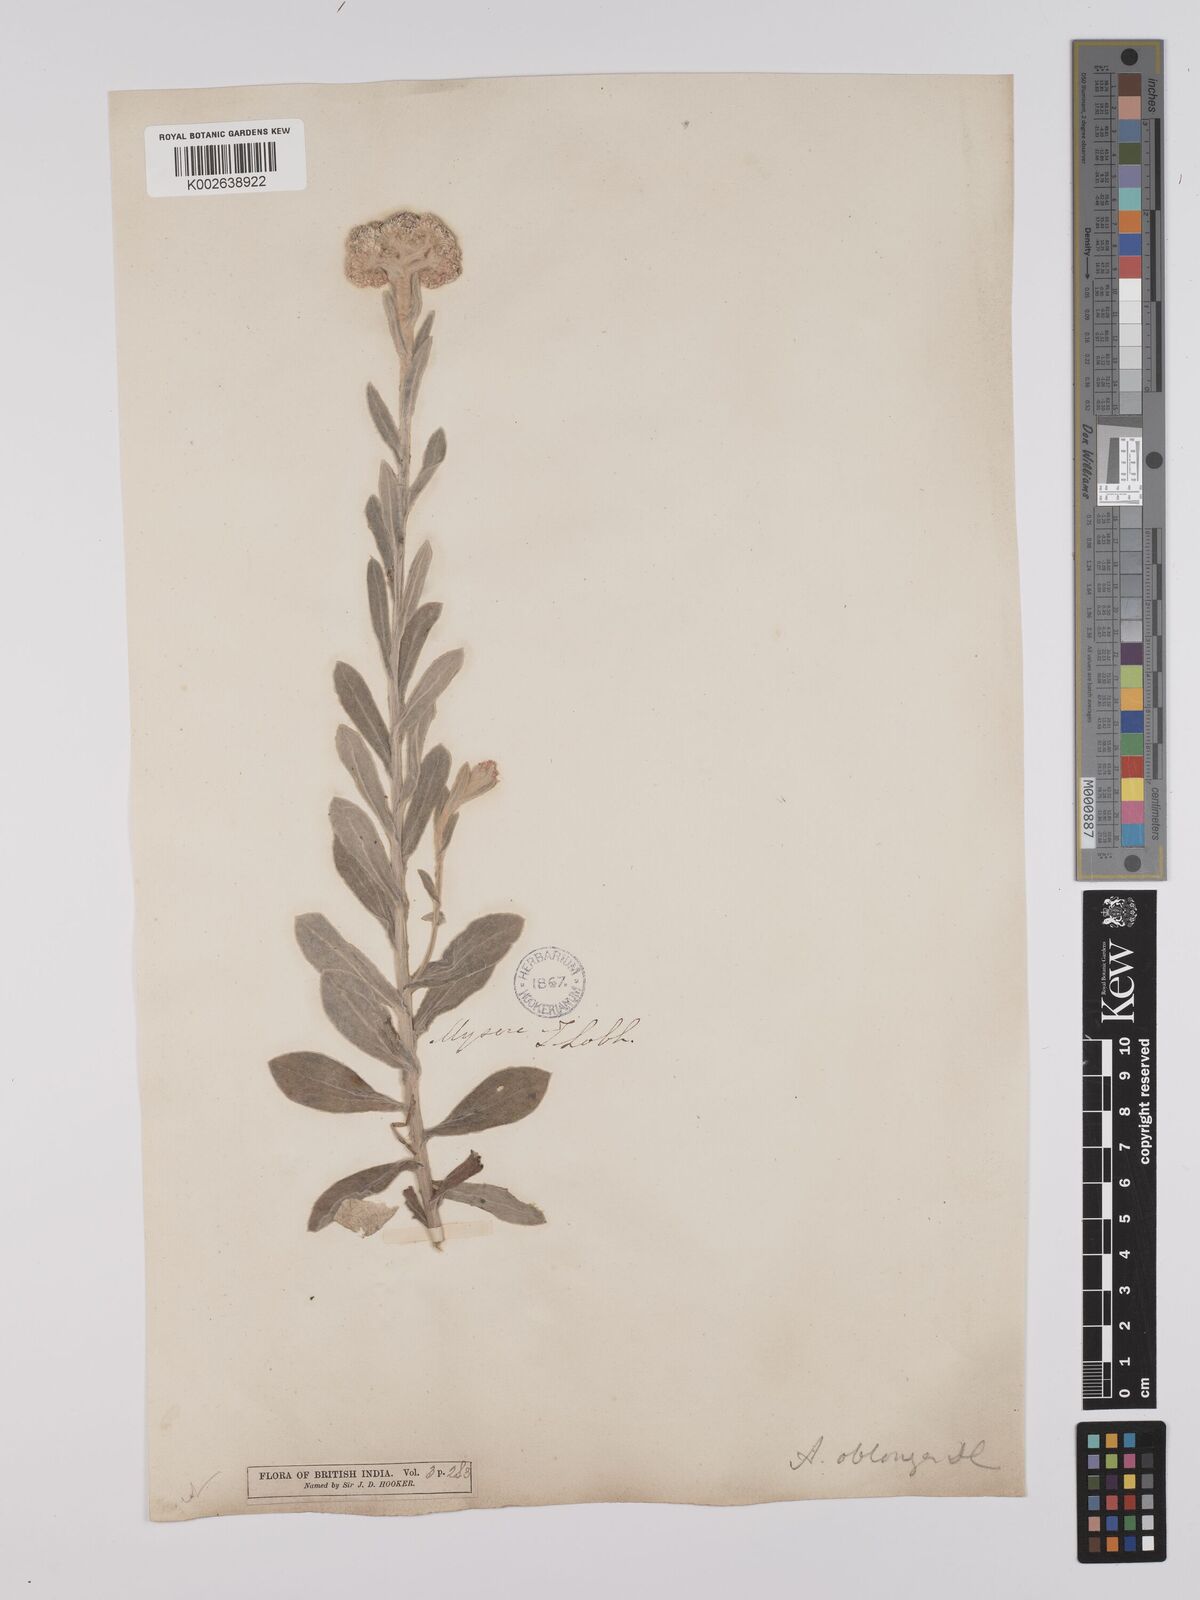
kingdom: Plantae
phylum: Tracheophyta
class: Magnoliopsida
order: Asterales
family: Asteraceae
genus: Anaphalis
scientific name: Anaphalis elliptica
